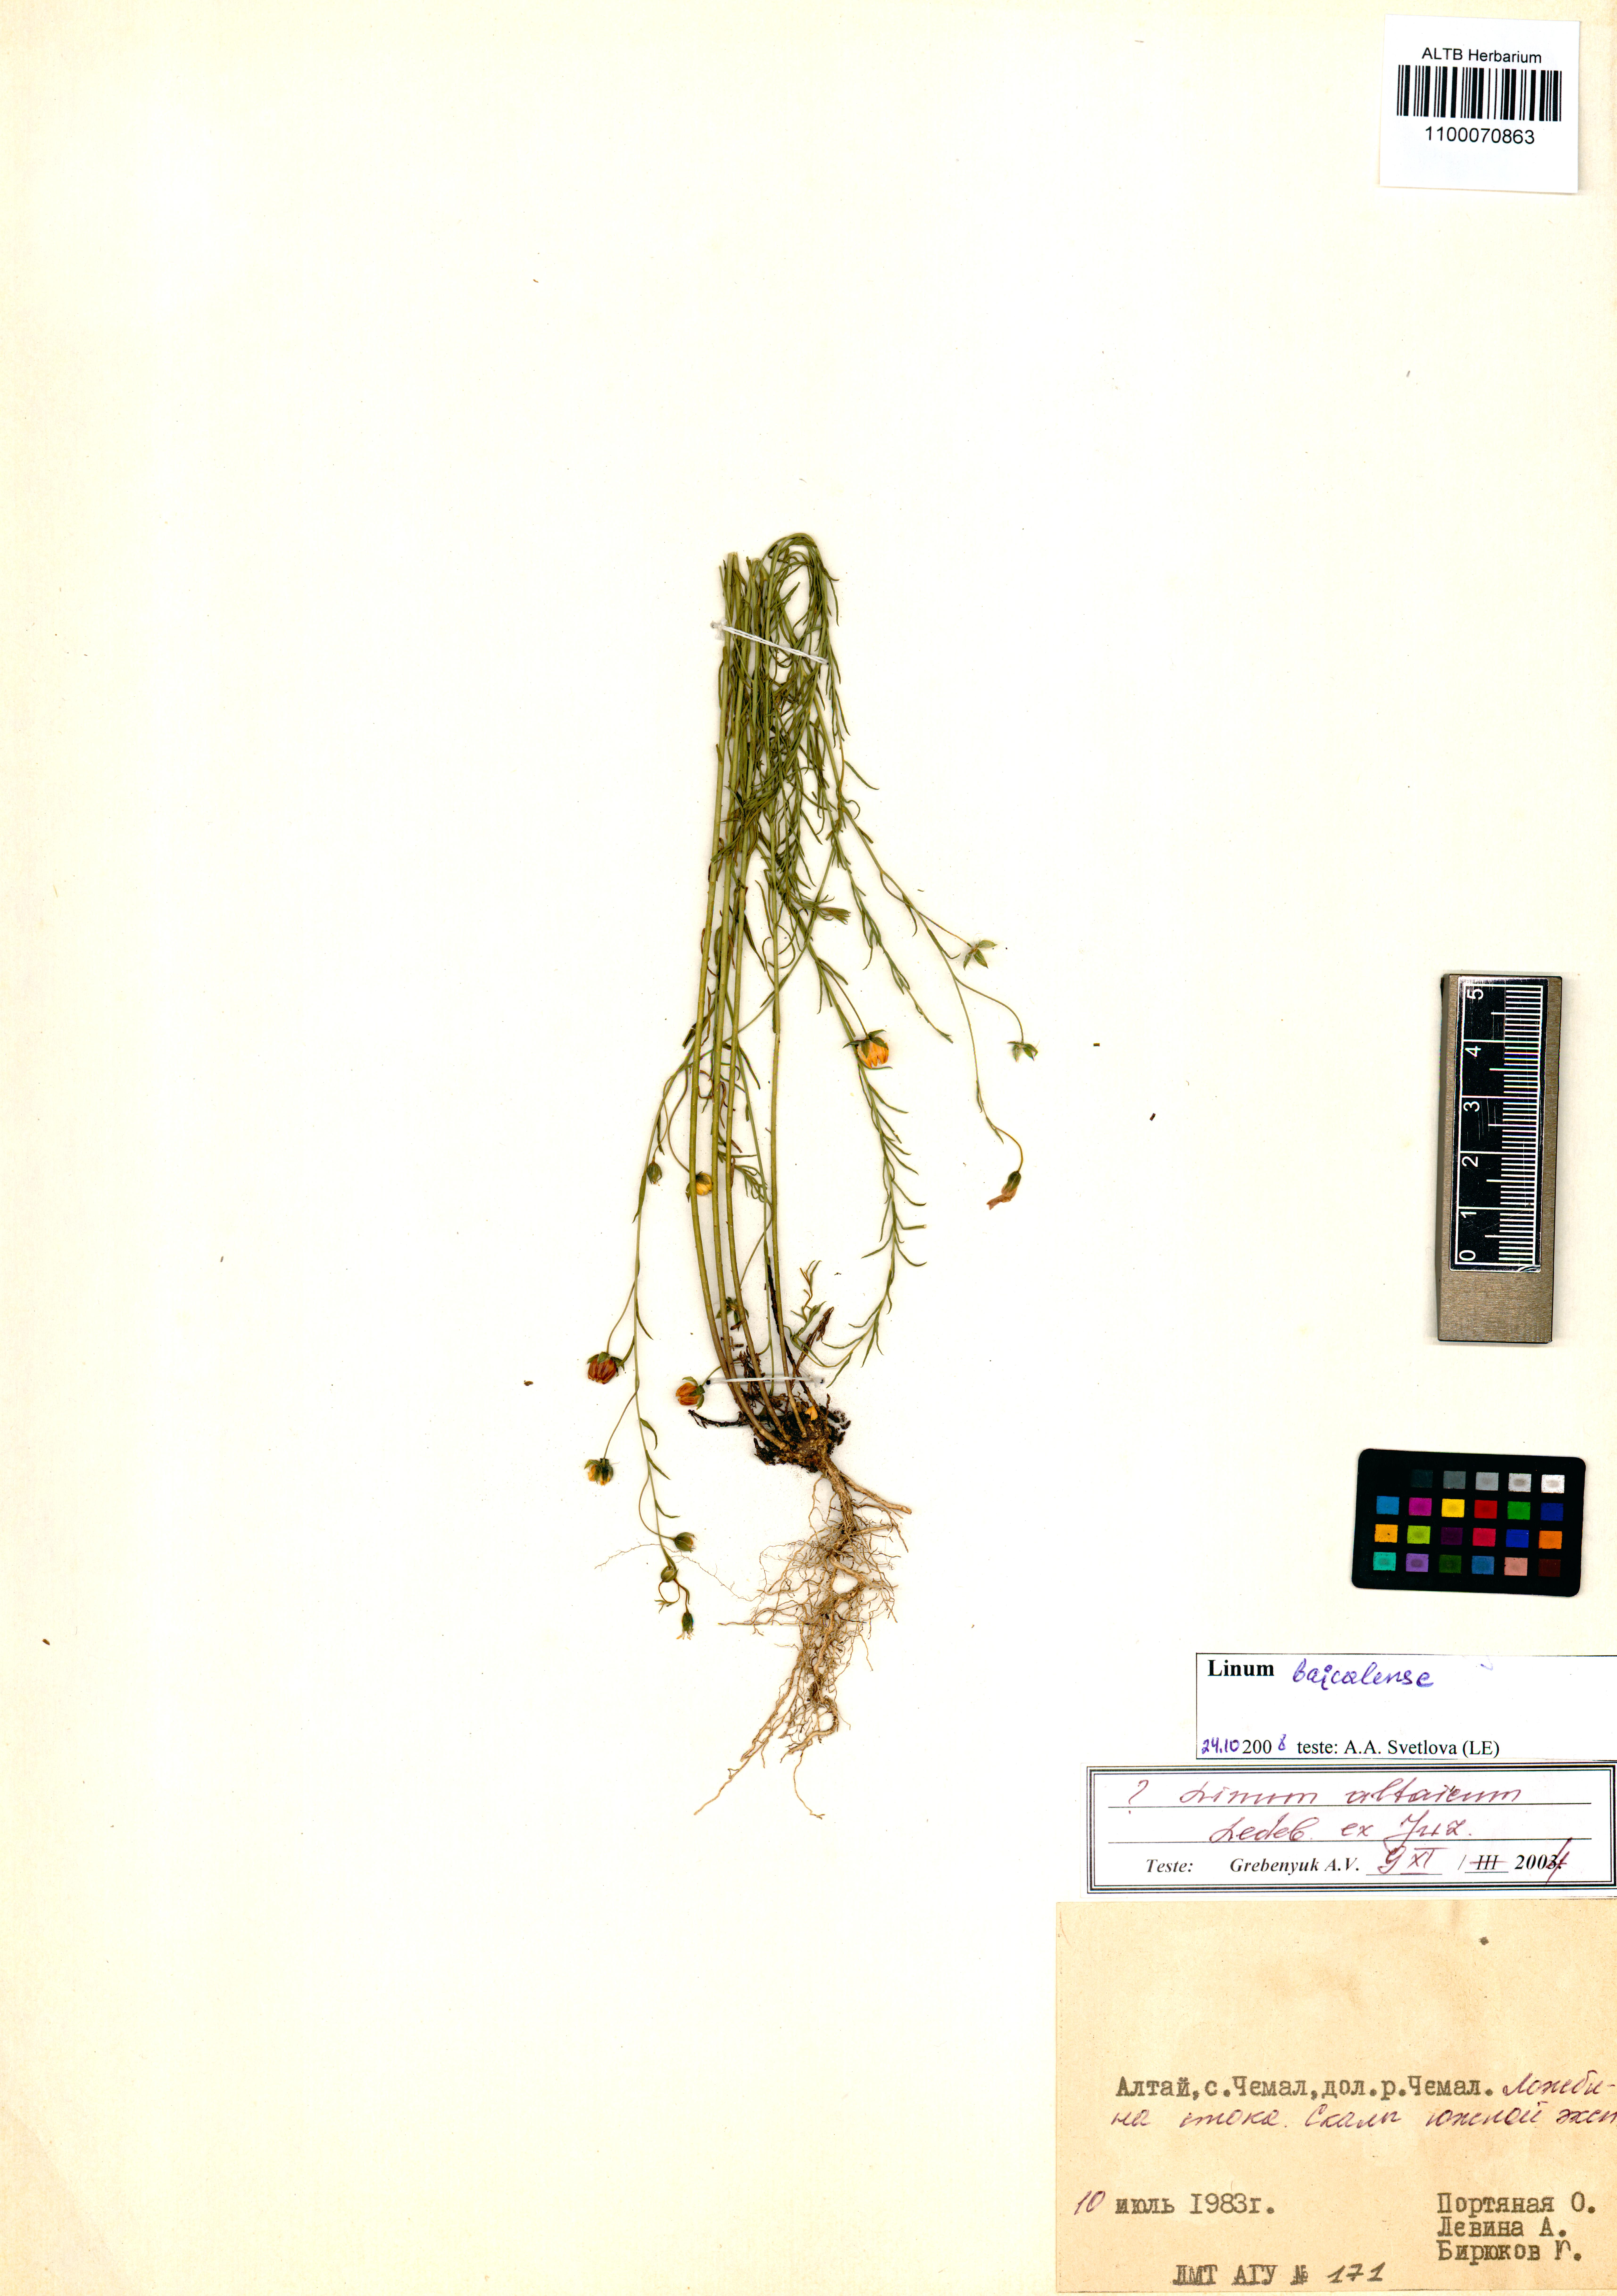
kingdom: Plantae
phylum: Tracheophyta
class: Magnoliopsida
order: Malpighiales
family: Linaceae
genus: Linum
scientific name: Linum nutans
